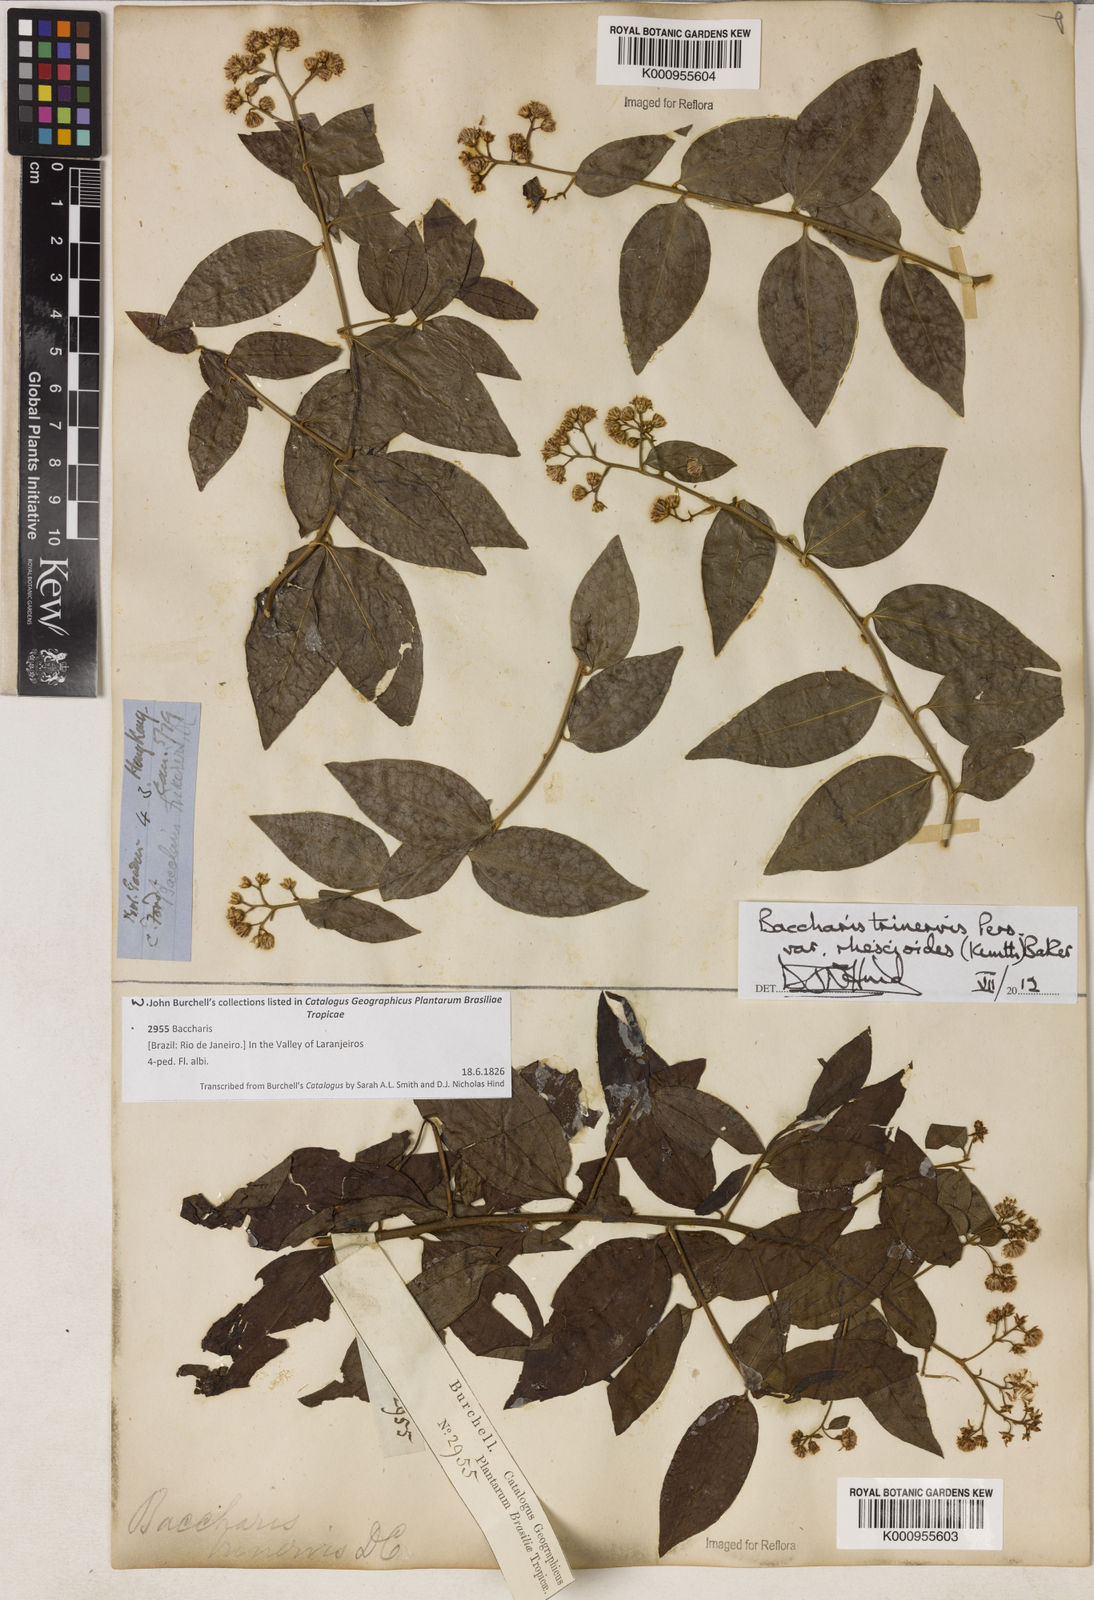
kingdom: Plantae
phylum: Tracheophyta
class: Magnoliopsida
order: Asterales
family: Asteraceae
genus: Baccharis
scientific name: Baccharis trinervis
